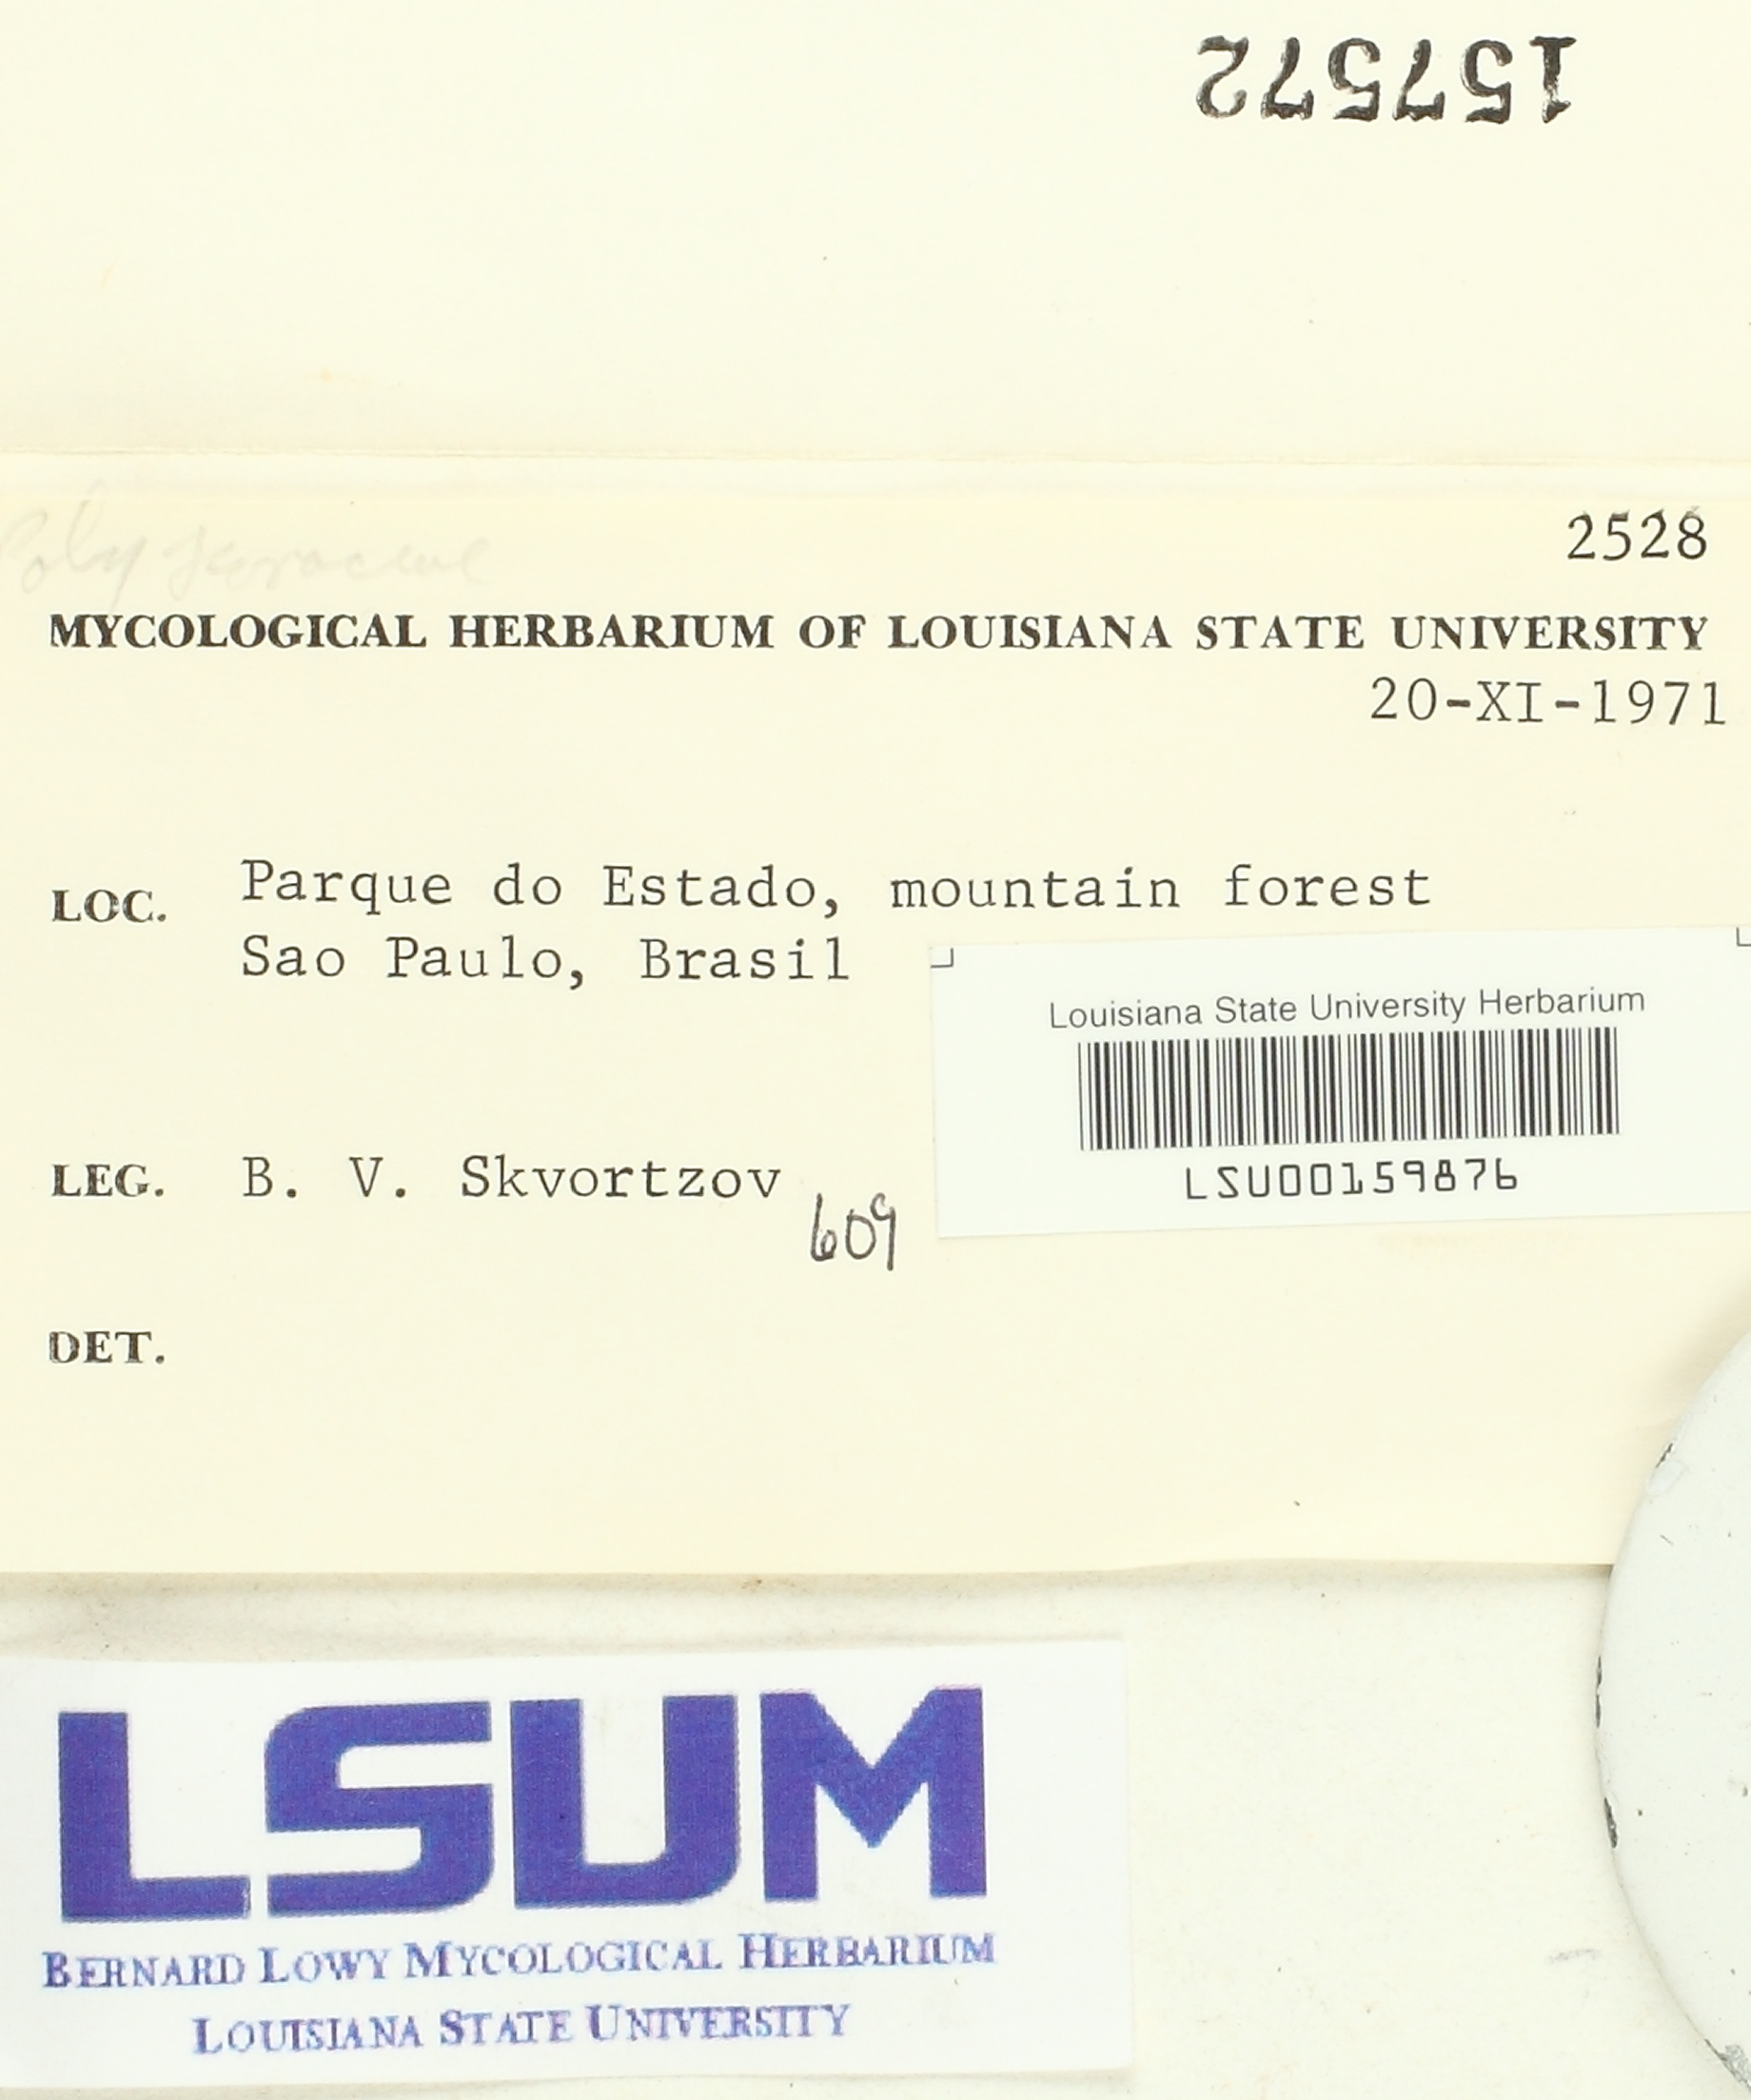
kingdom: Fungi
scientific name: Fungi
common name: Fungi
